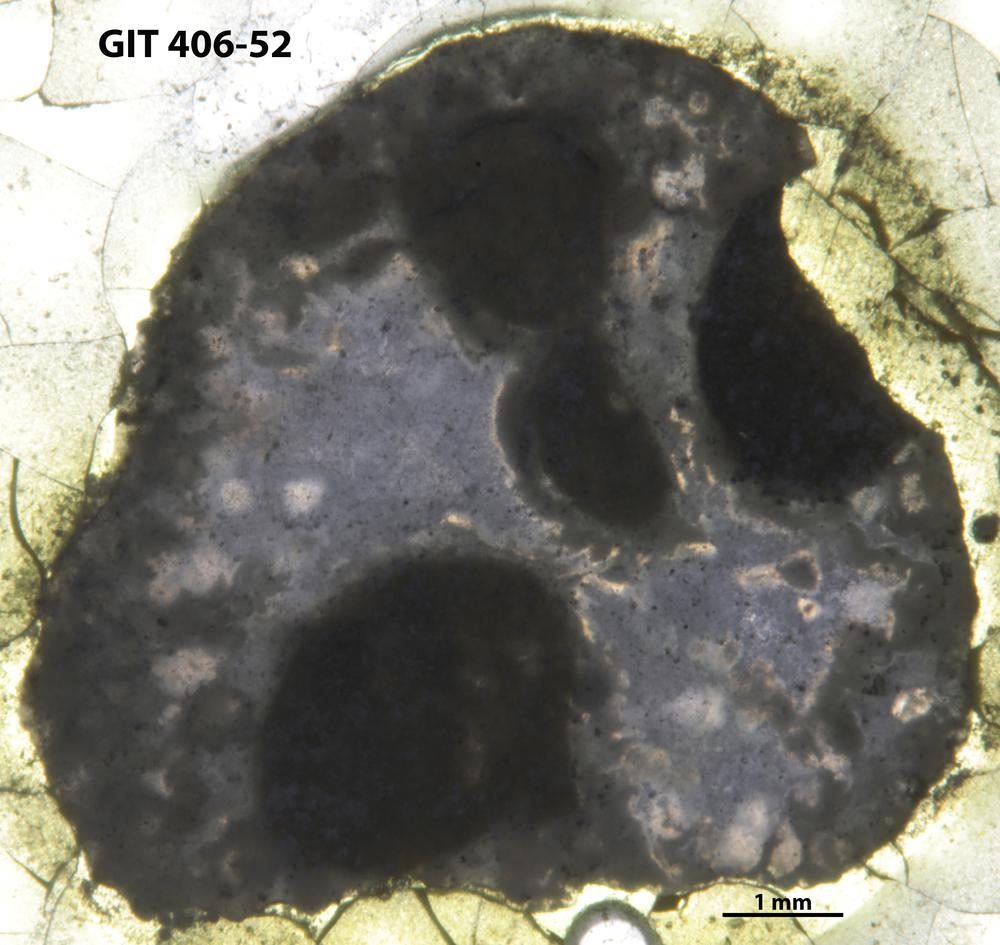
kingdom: Animalia
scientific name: Animalia
